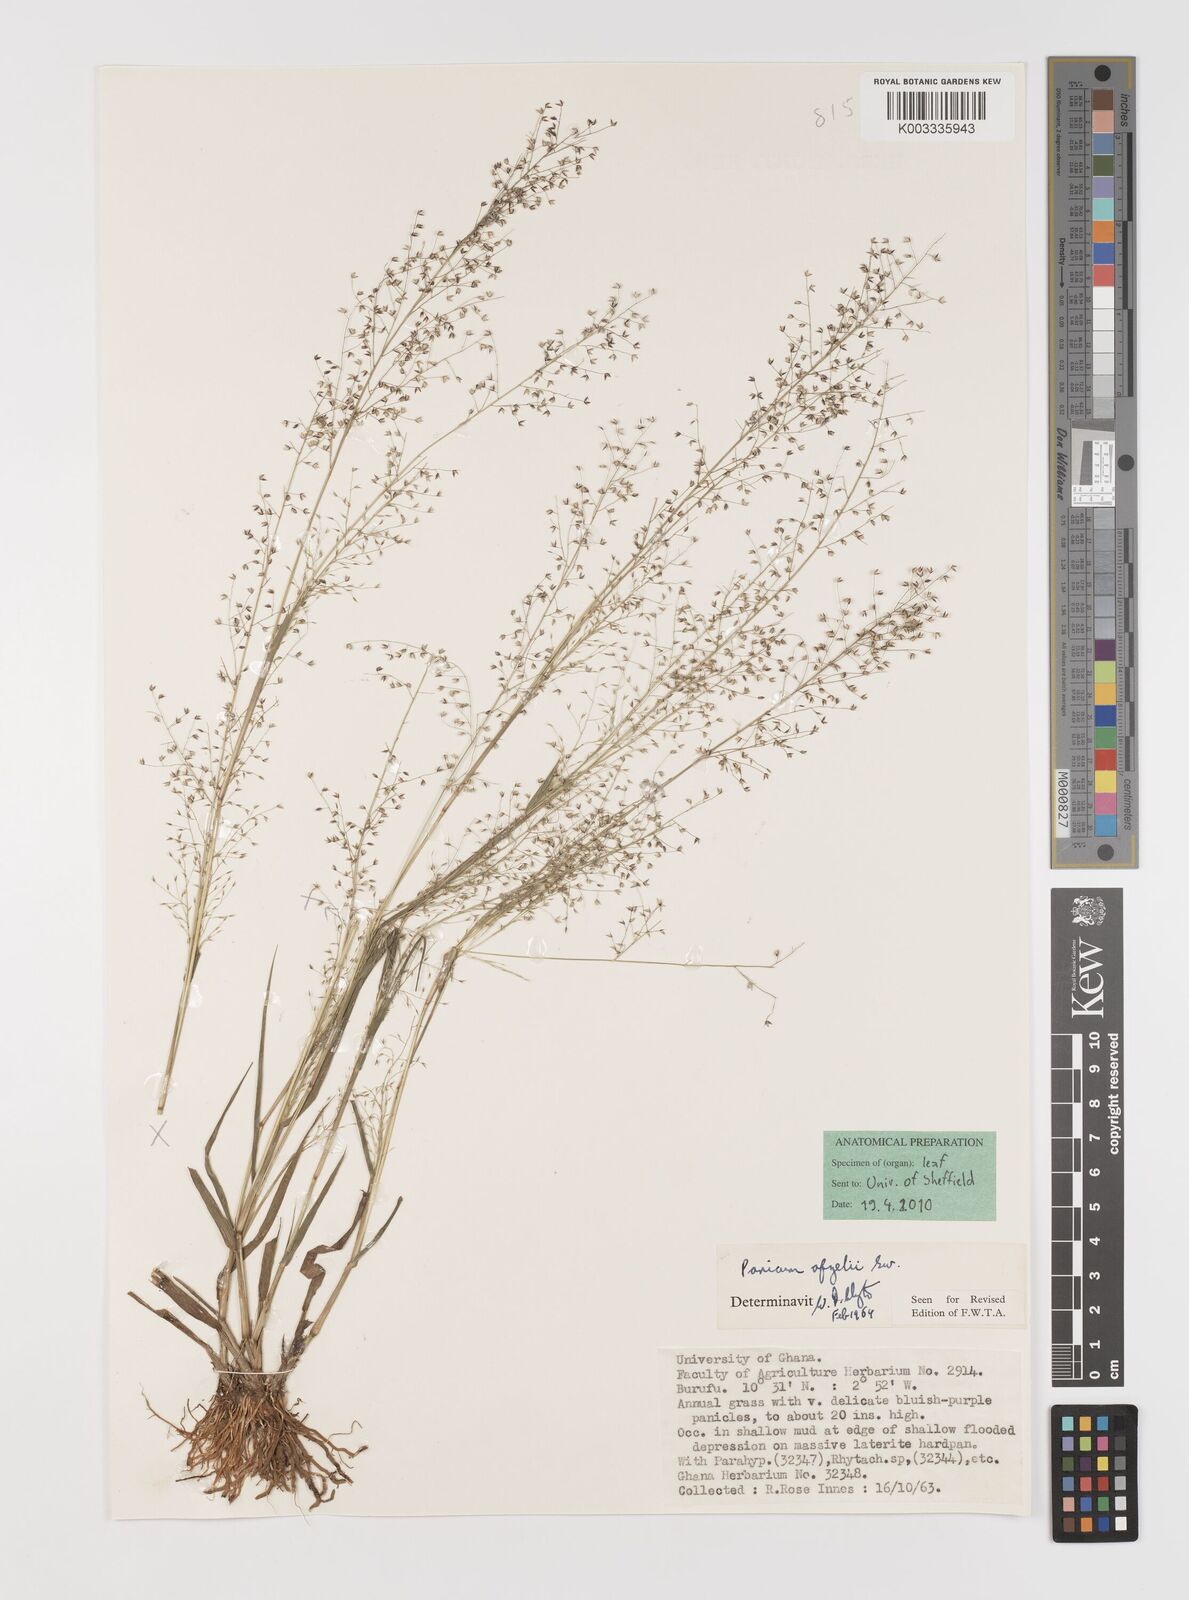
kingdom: Plantae
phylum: Tracheophyta
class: Liliopsida
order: Poales
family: Poaceae
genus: Panicum
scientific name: Panicum afzelii
